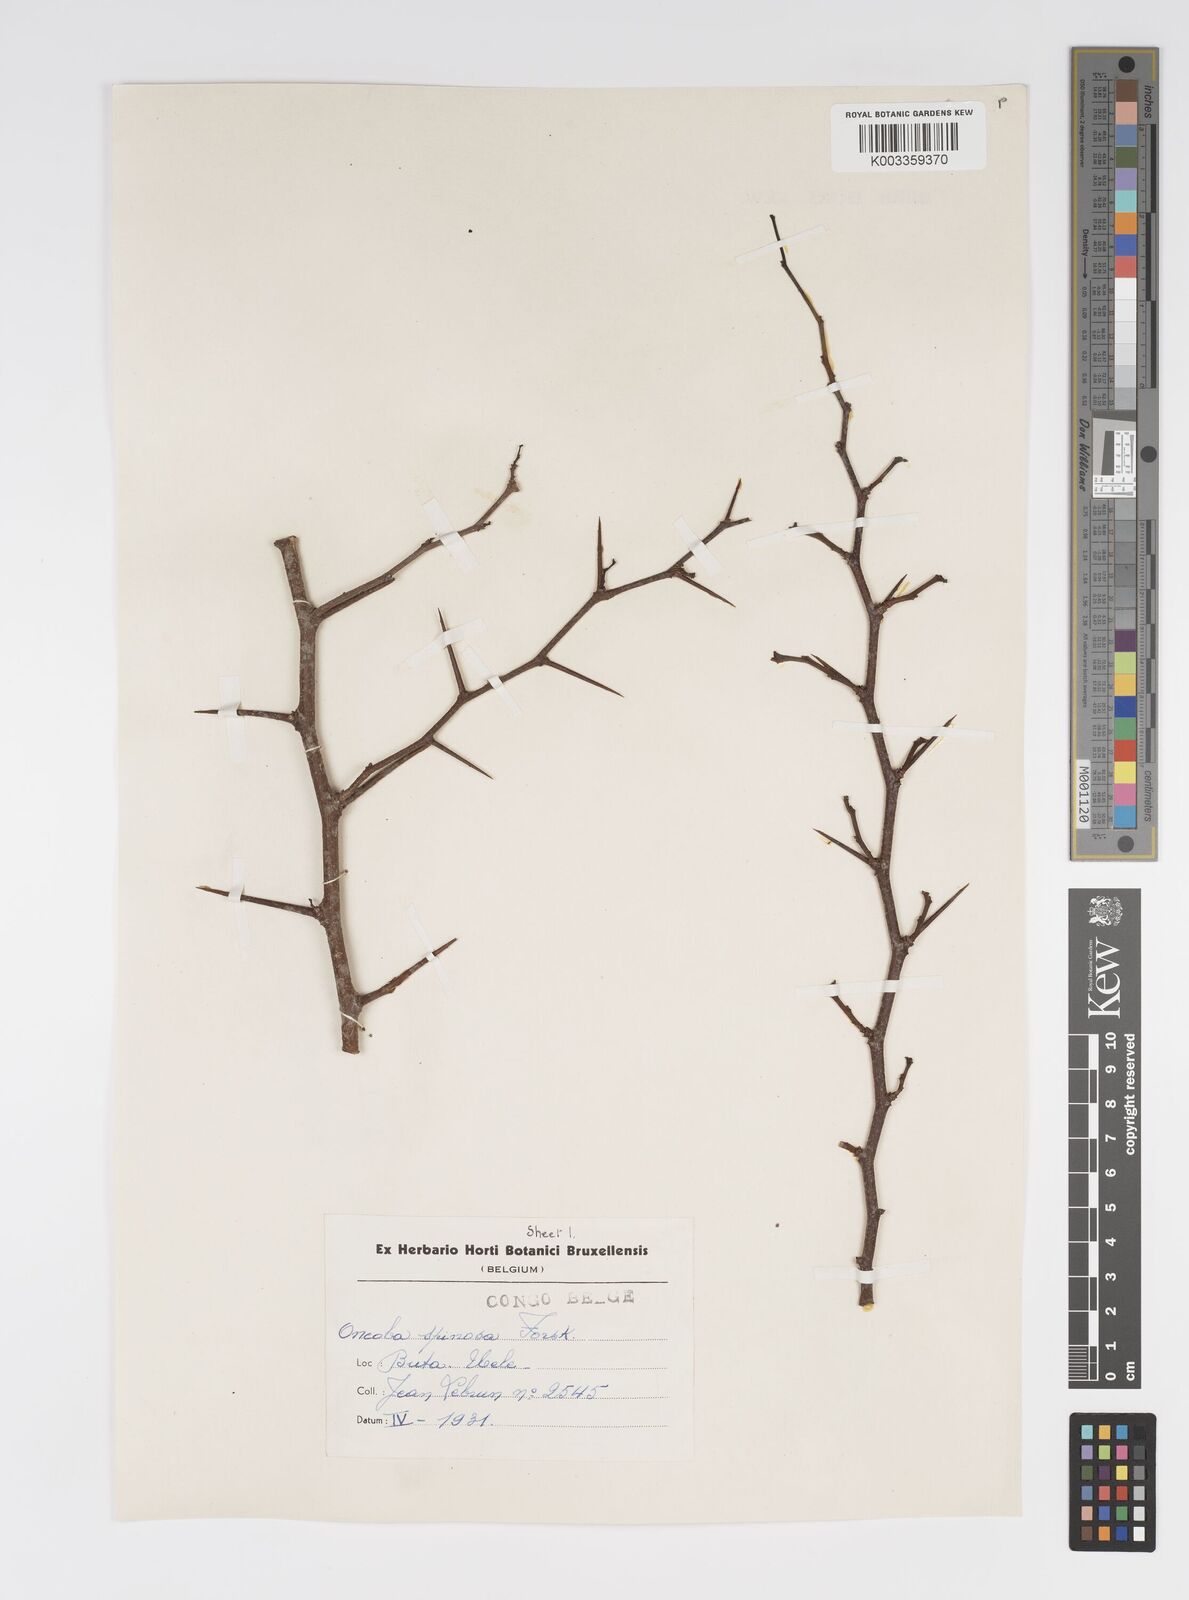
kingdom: Plantae
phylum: Tracheophyta
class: Magnoliopsida
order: Malpighiales
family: Salicaceae
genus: Oncoba
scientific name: Oncoba spinosa
